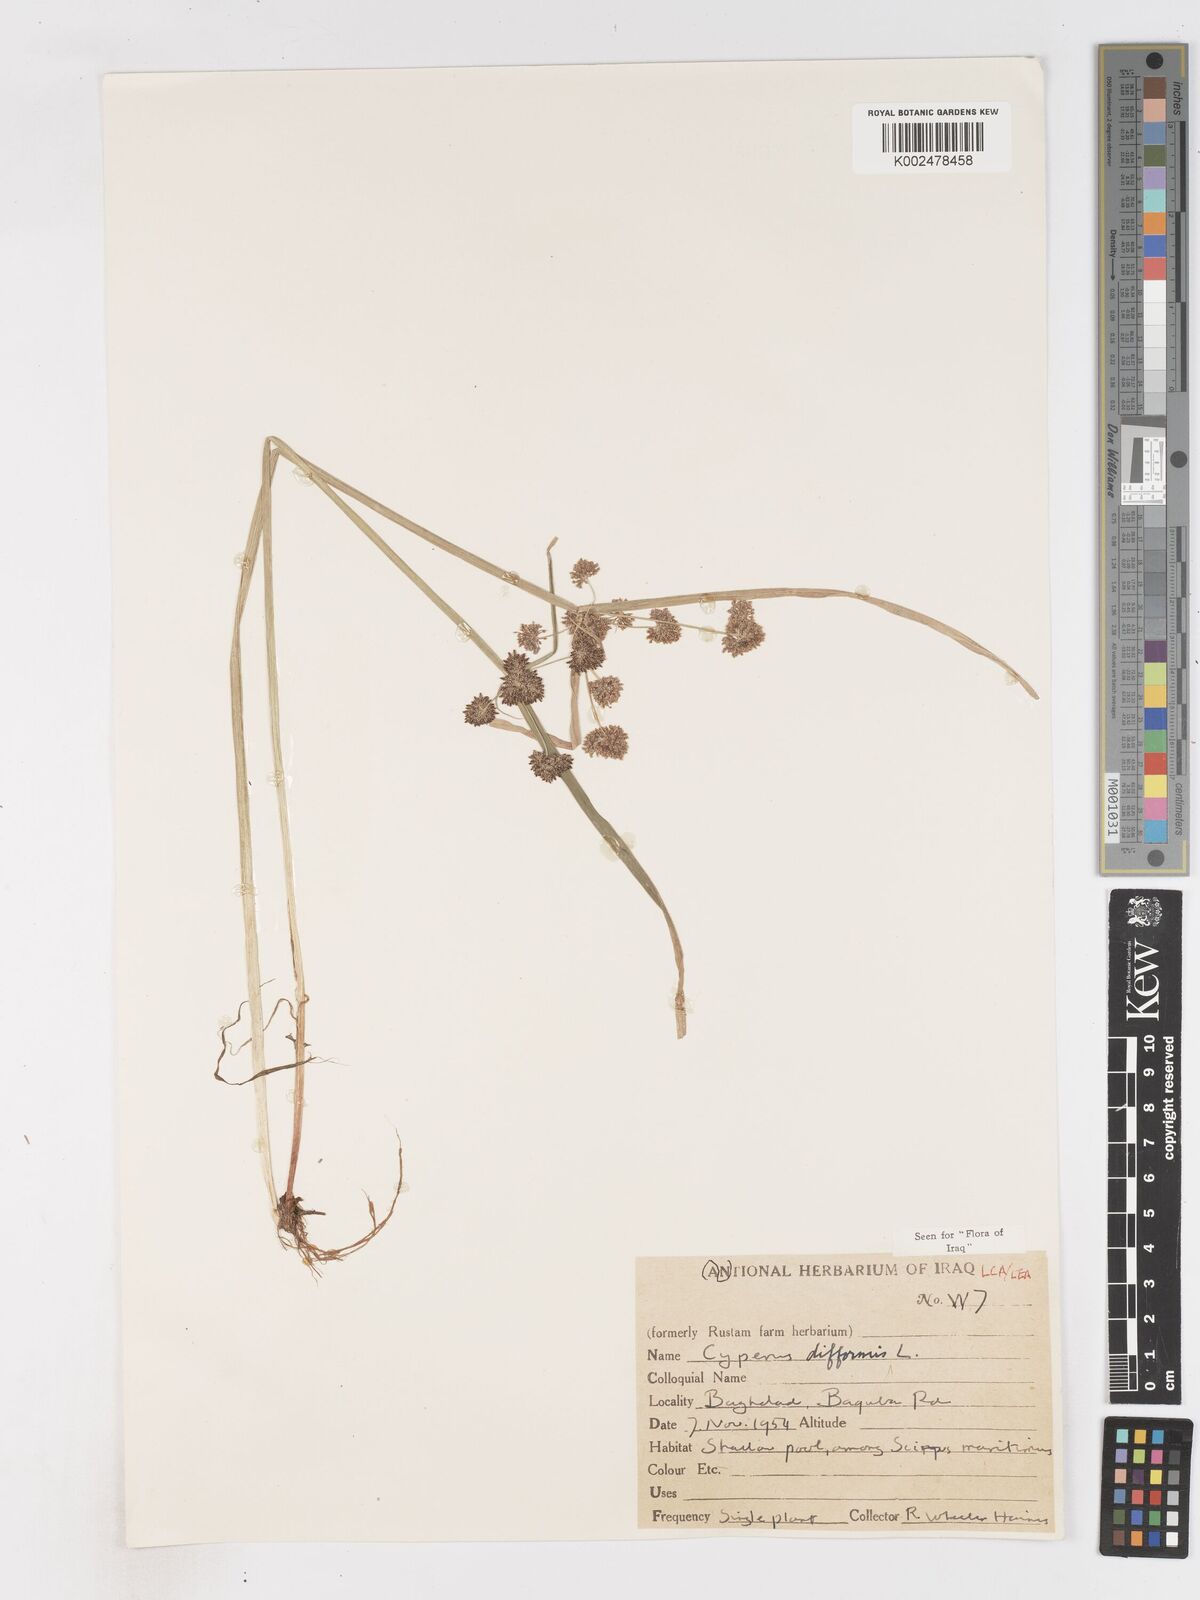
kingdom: Plantae
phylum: Tracheophyta
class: Liliopsida
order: Poales
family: Cyperaceae
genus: Cyperus
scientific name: Cyperus difformis
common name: Variable flatsedge
